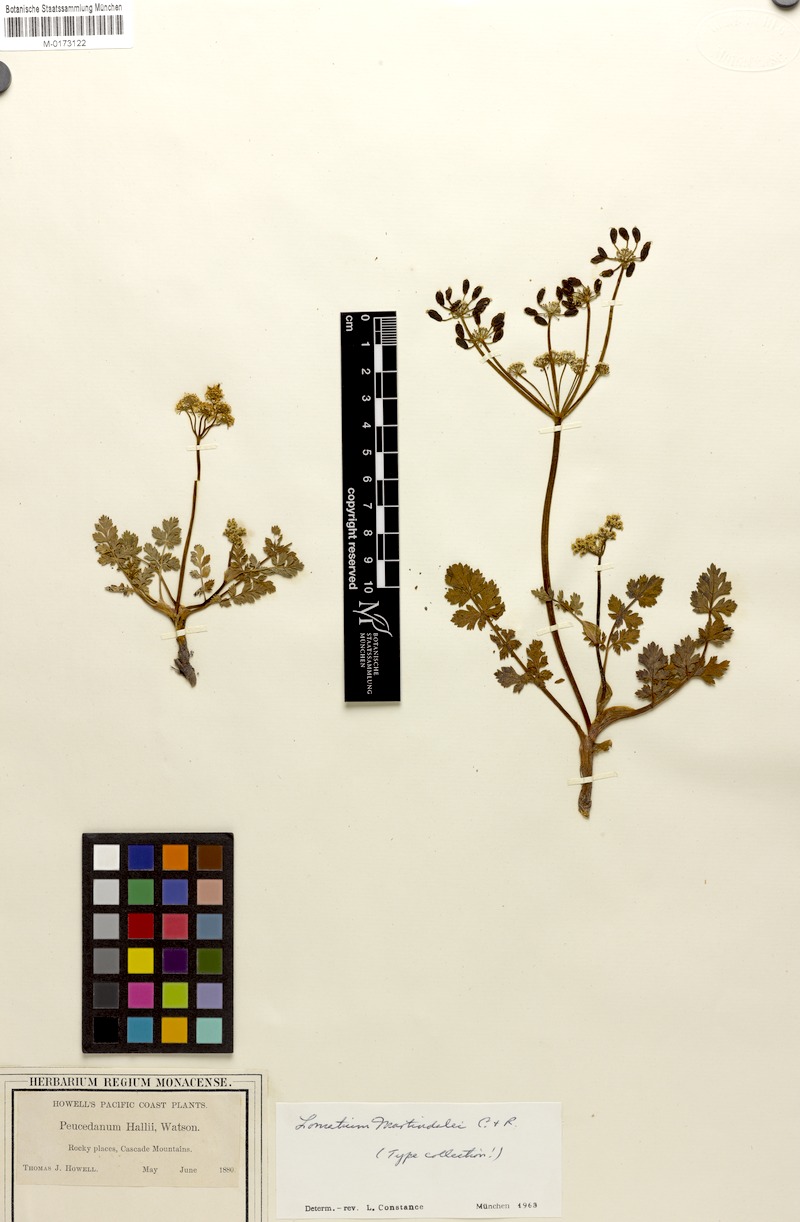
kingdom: Plantae
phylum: Tracheophyta
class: Magnoliopsida
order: Apiales
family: Apiaceae
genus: Lomatium
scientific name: Lomatium martindalei
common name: Cascade desert-parsley
